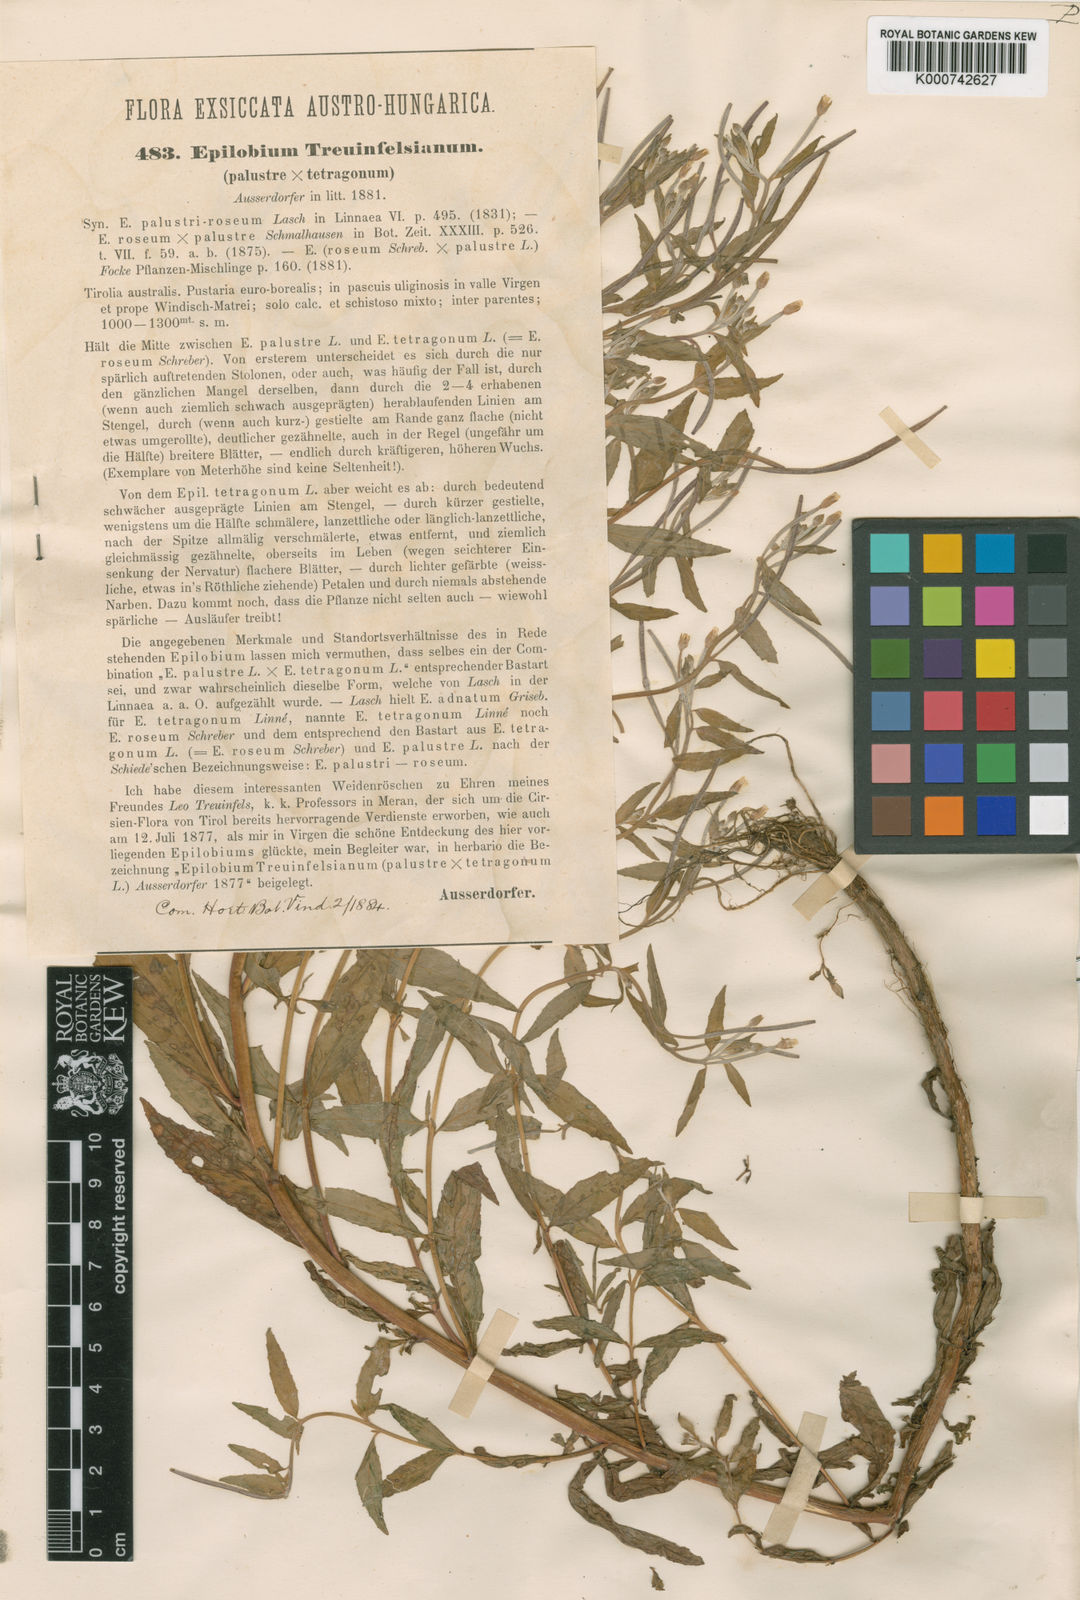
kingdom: Plantae
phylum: Tracheophyta
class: Magnoliopsida
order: Myrtales
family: Onagraceae
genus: Epilobium
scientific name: Epilobium purpureum
